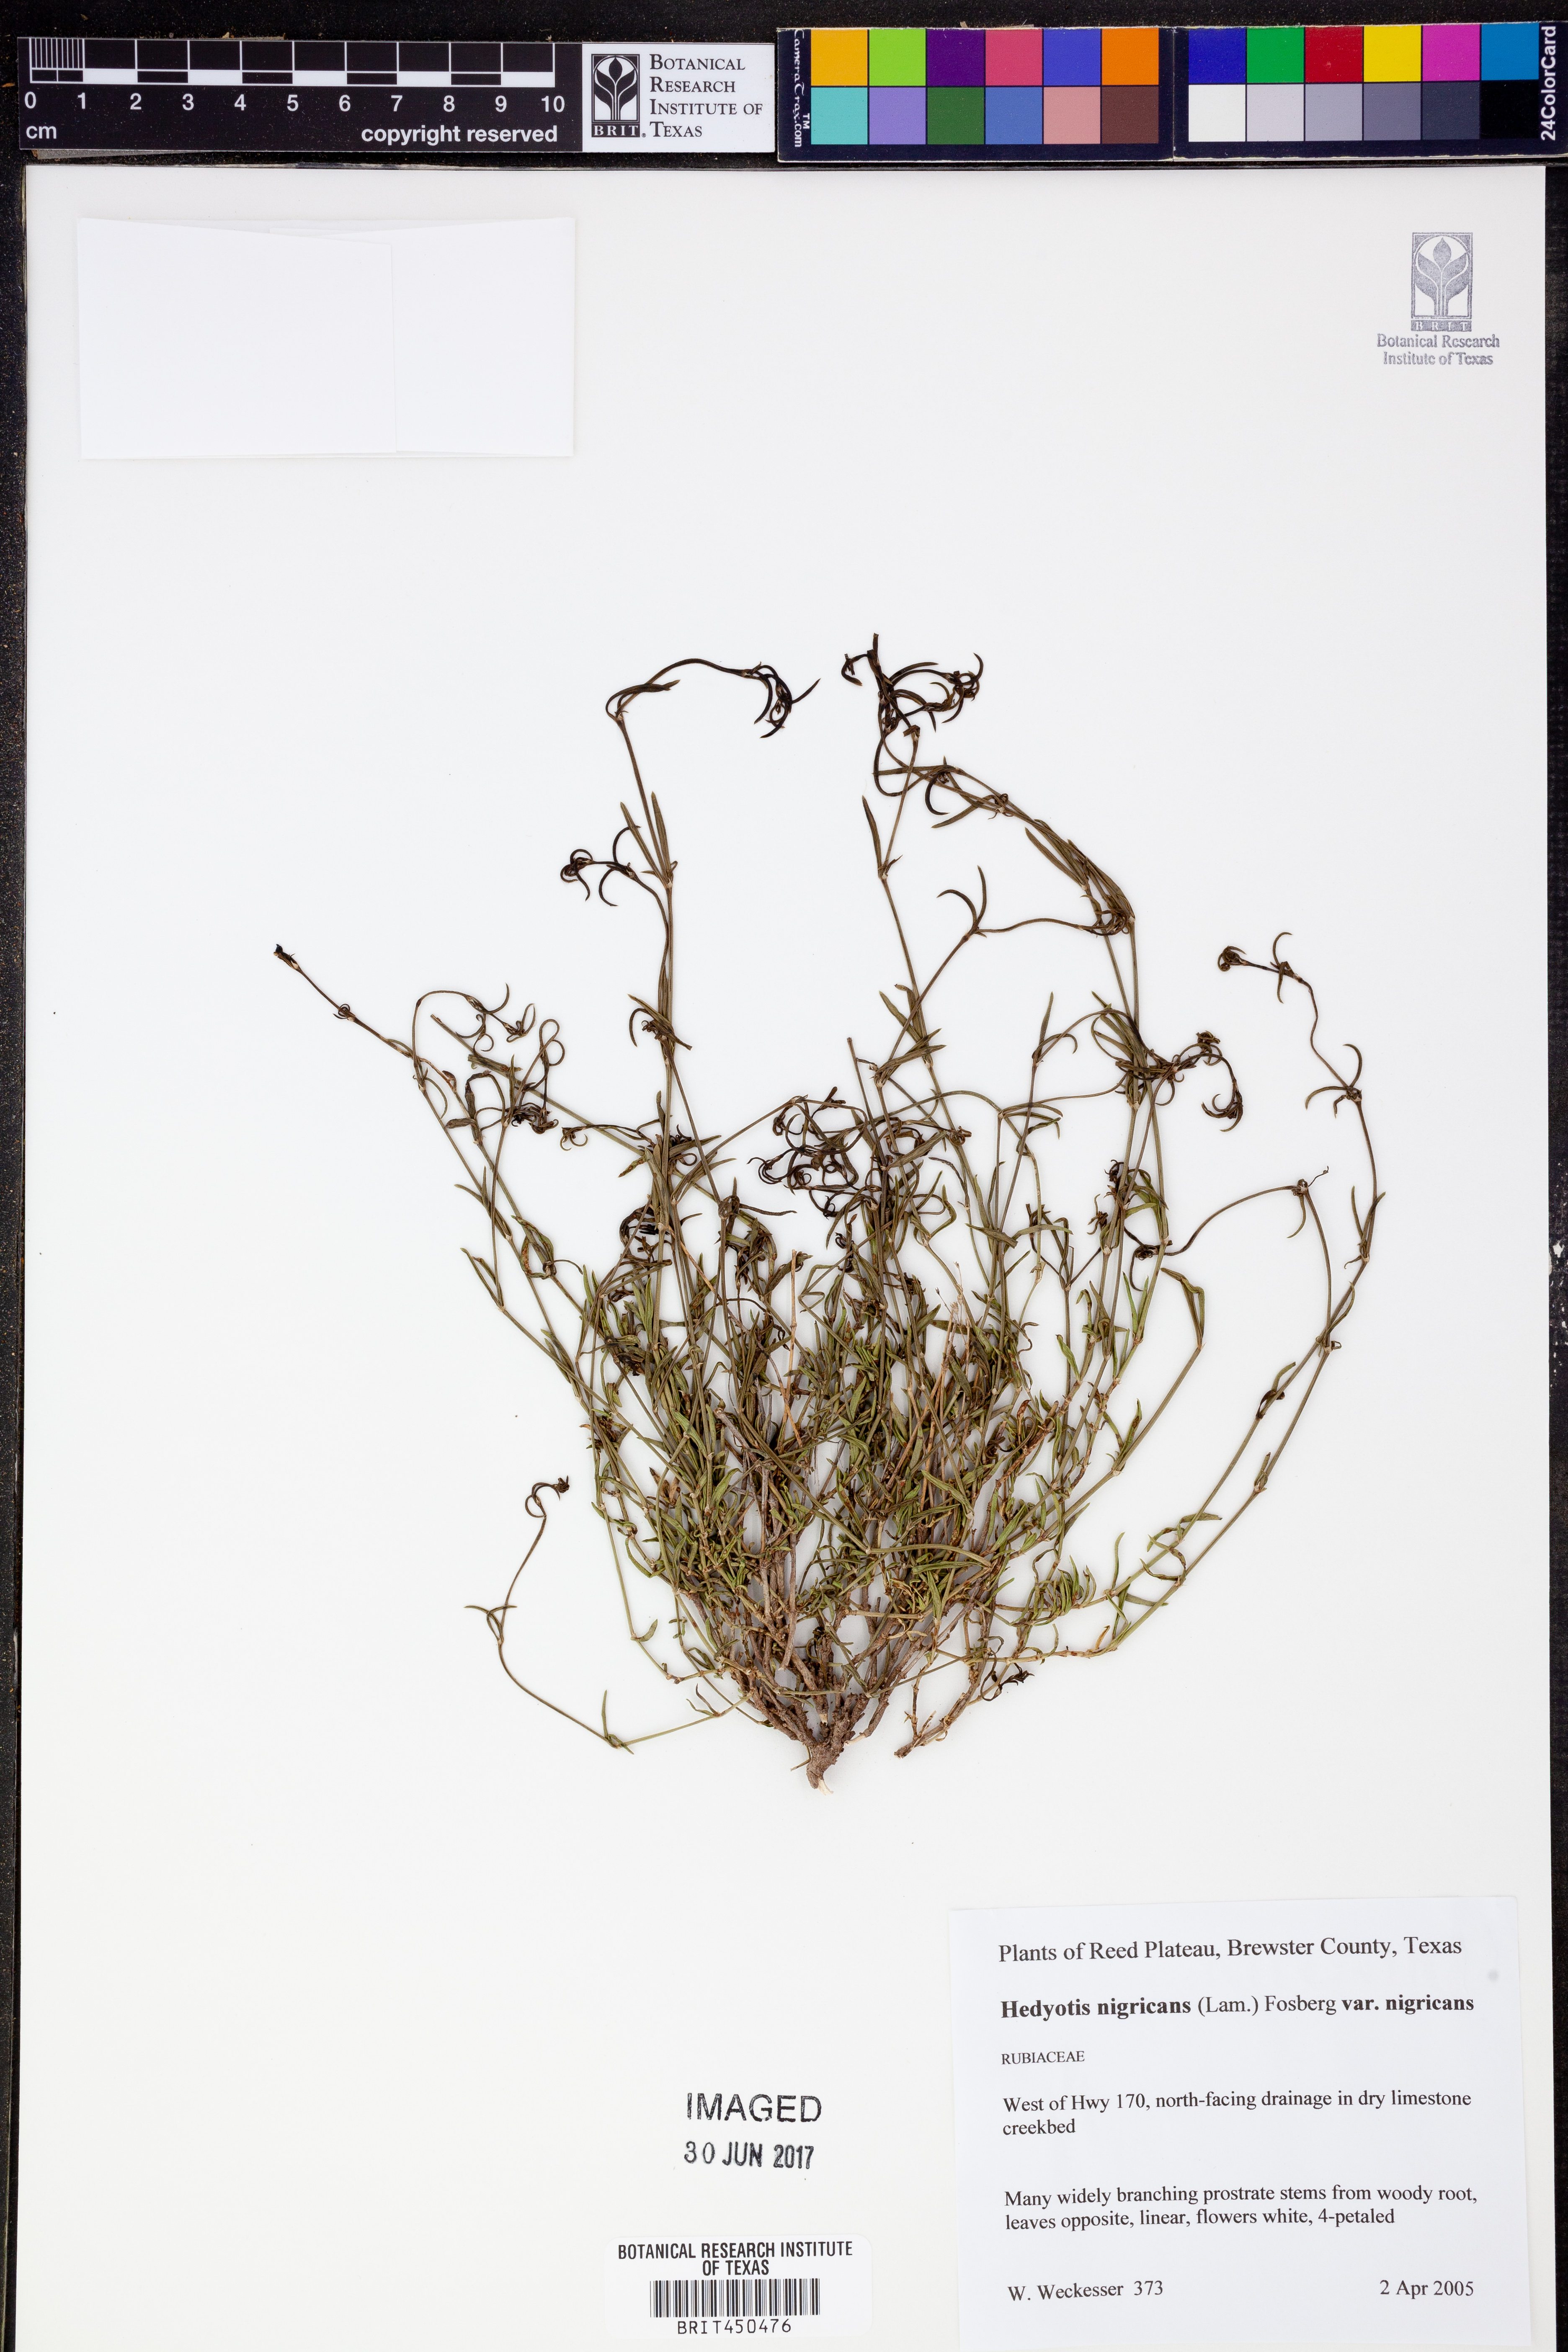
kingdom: Plantae
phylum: Tracheophyta
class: Magnoliopsida
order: Gentianales
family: Rubiaceae
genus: Stenaria
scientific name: Stenaria nigricans
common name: Diamondflowers
